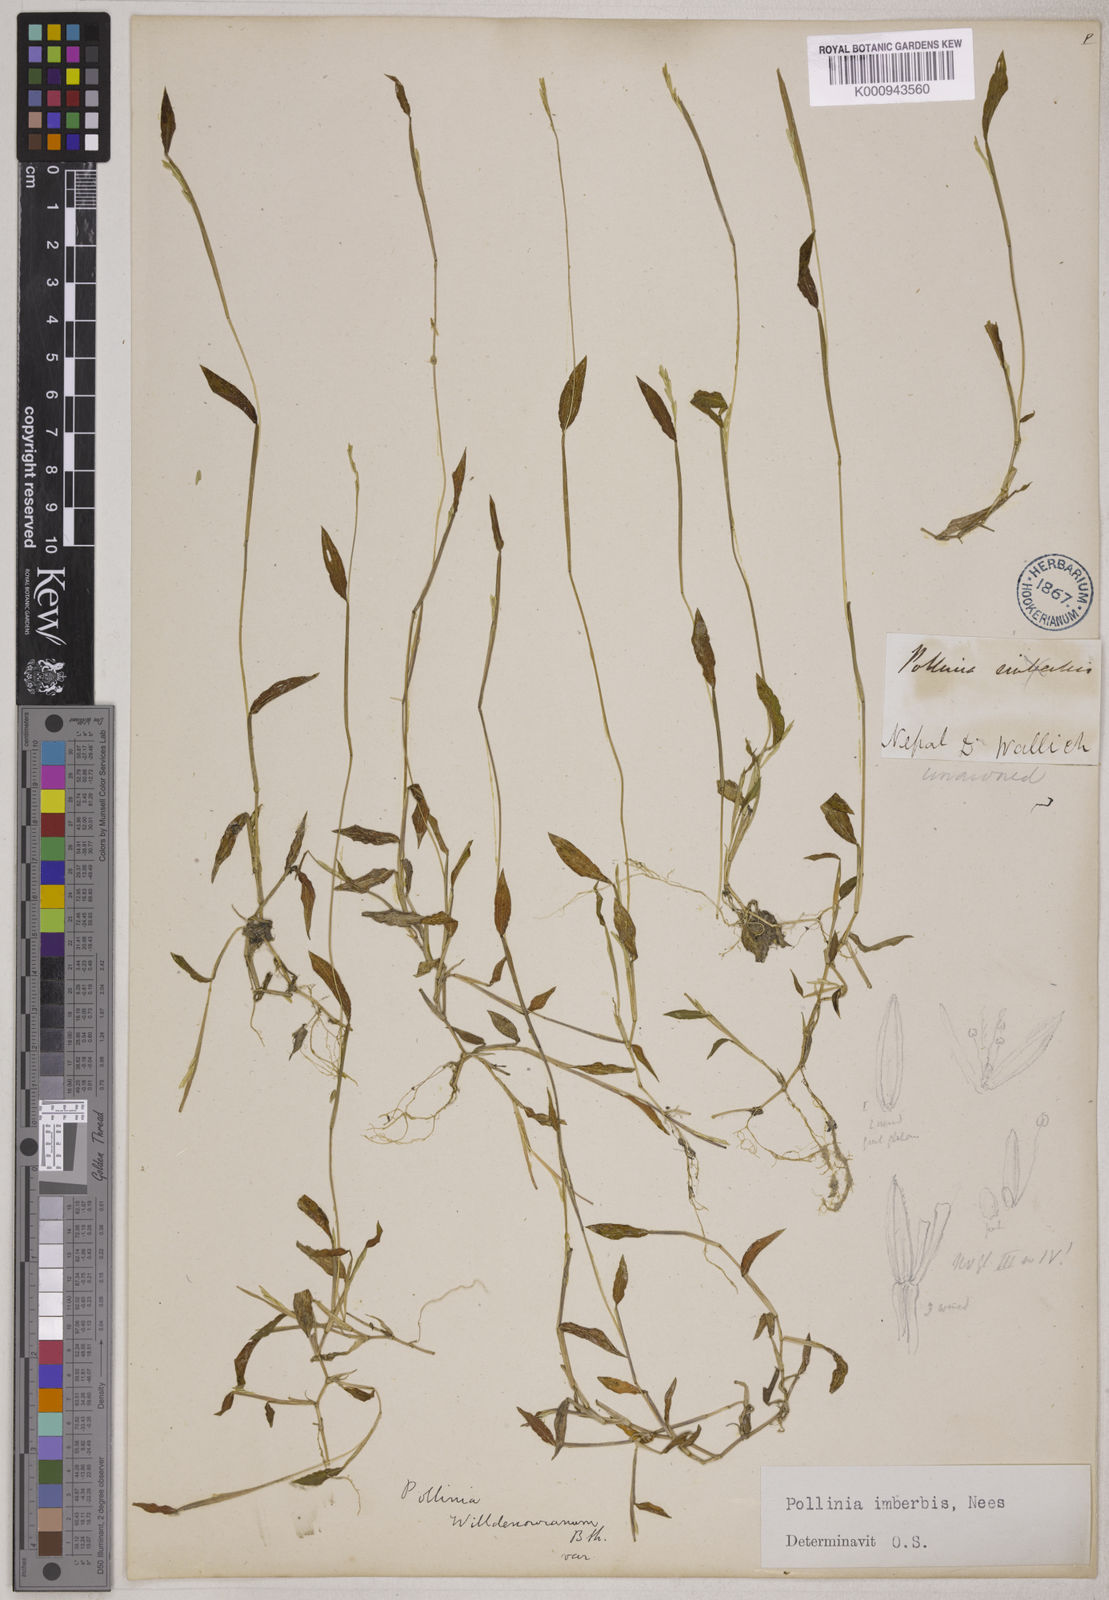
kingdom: Plantae
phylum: Tracheophyta
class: Liliopsida
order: Poales
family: Poaceae
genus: Microstegium
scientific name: Microstegium vimineum
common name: Japanese stiltgrass
